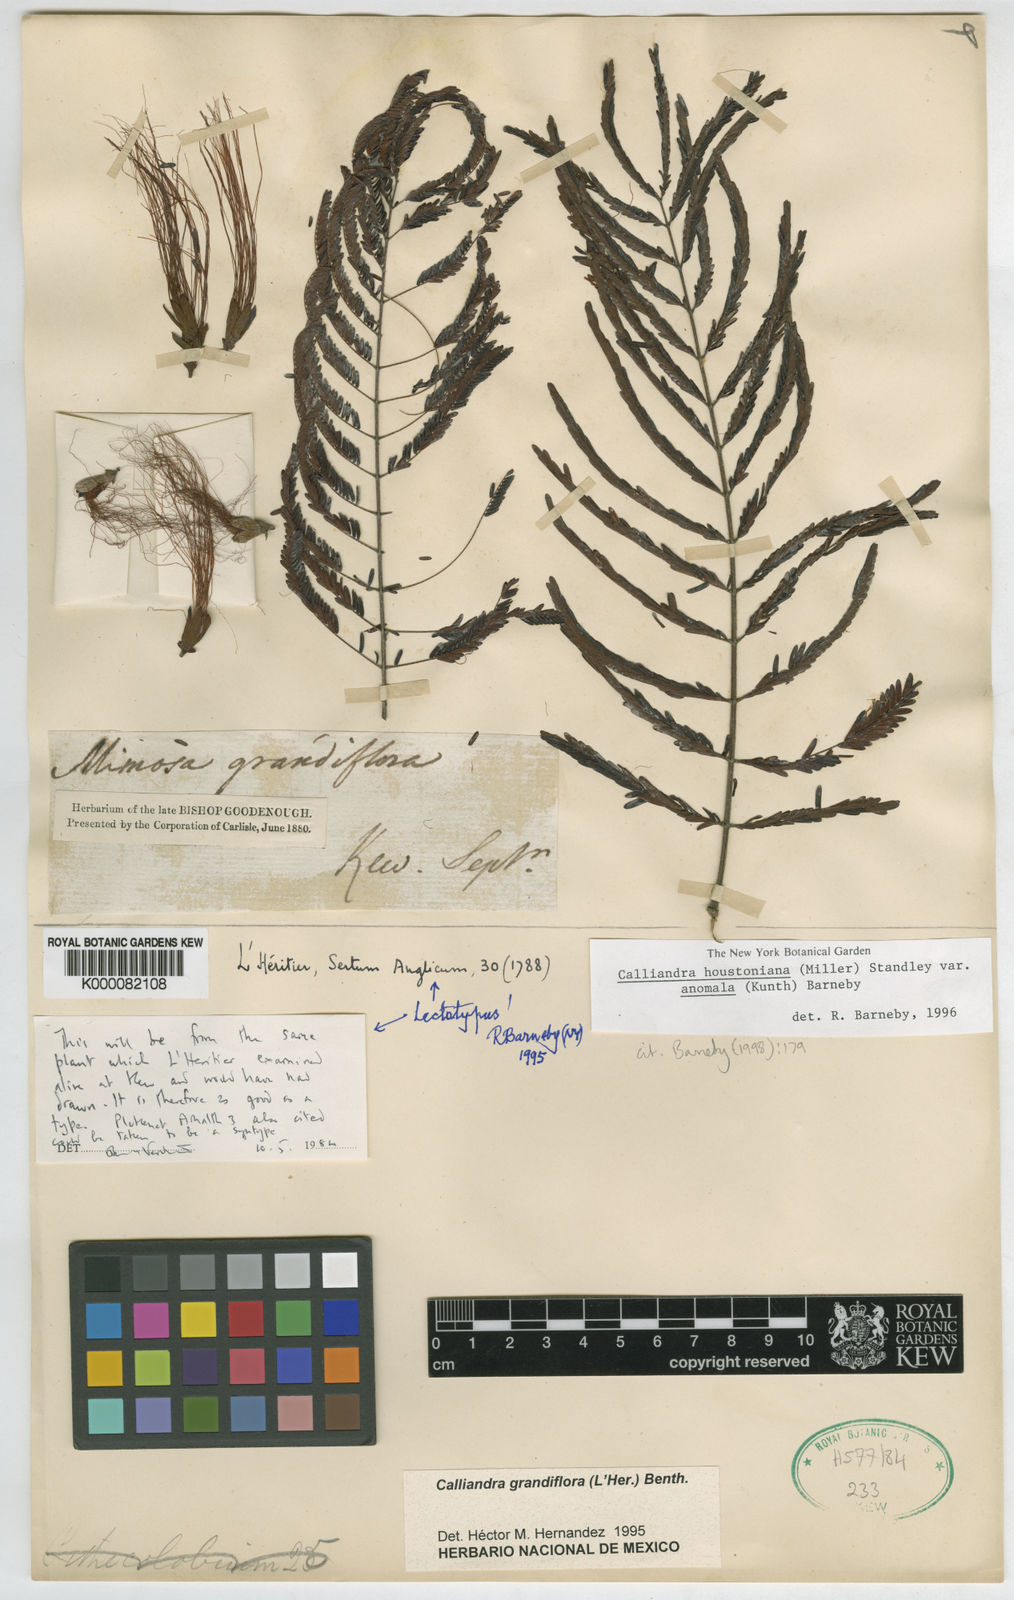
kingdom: Plantae
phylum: Tracheophyta
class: Magnoliopsida
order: Fabales
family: Fabaceae
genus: Calliandra
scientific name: Calliandra houstoniana
